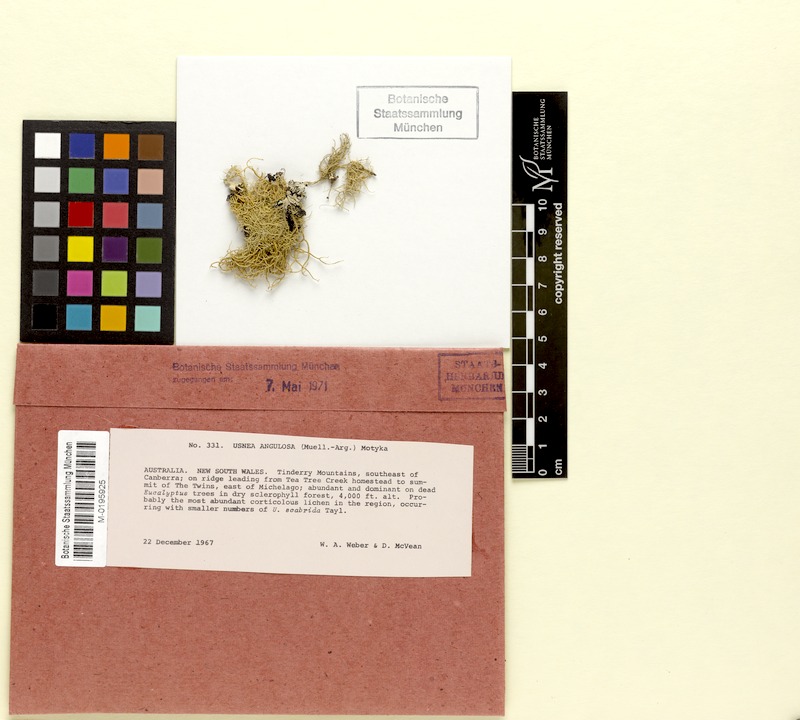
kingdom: Fungi
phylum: Ascomycota
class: Lecanoromycetes
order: Lecanorales
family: Parmeliaceae
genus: Usnea
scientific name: Usnea inermis
